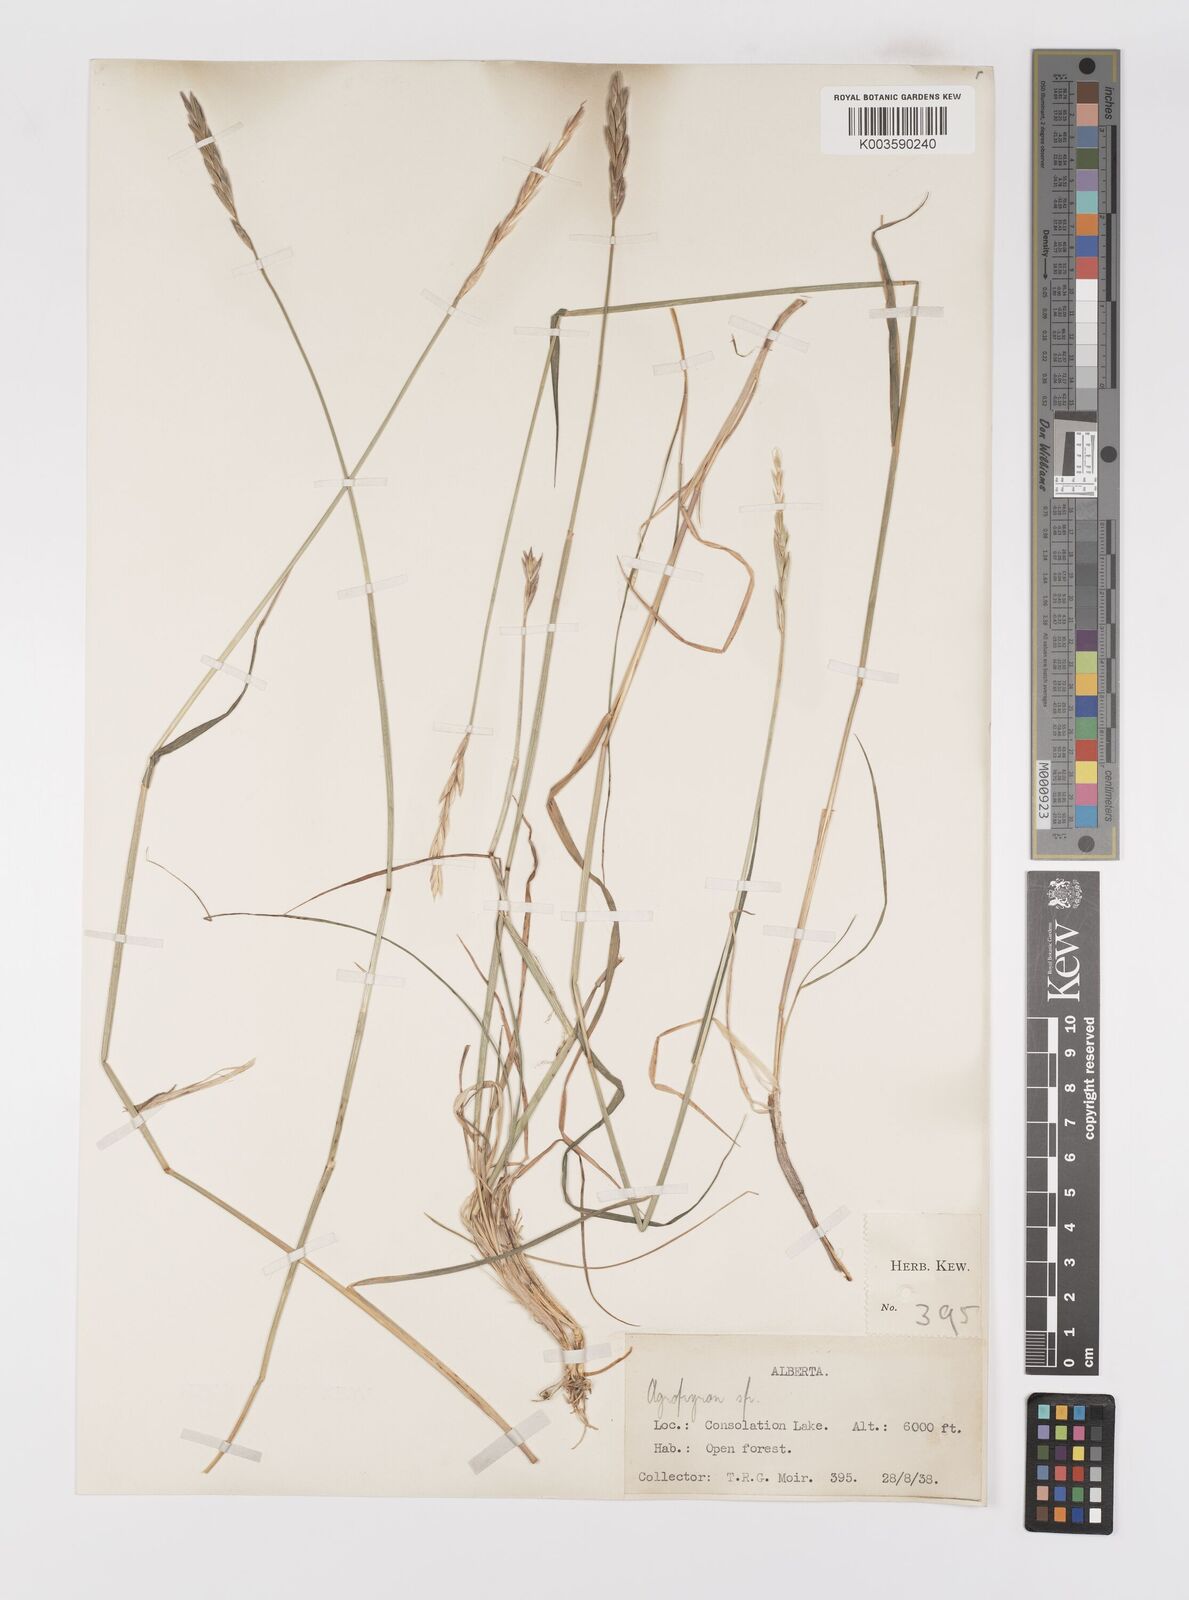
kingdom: Plantae
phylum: Tracheophyta
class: Liliopsida
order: Poales
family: Poaceae
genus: Elymus
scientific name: Elymus
